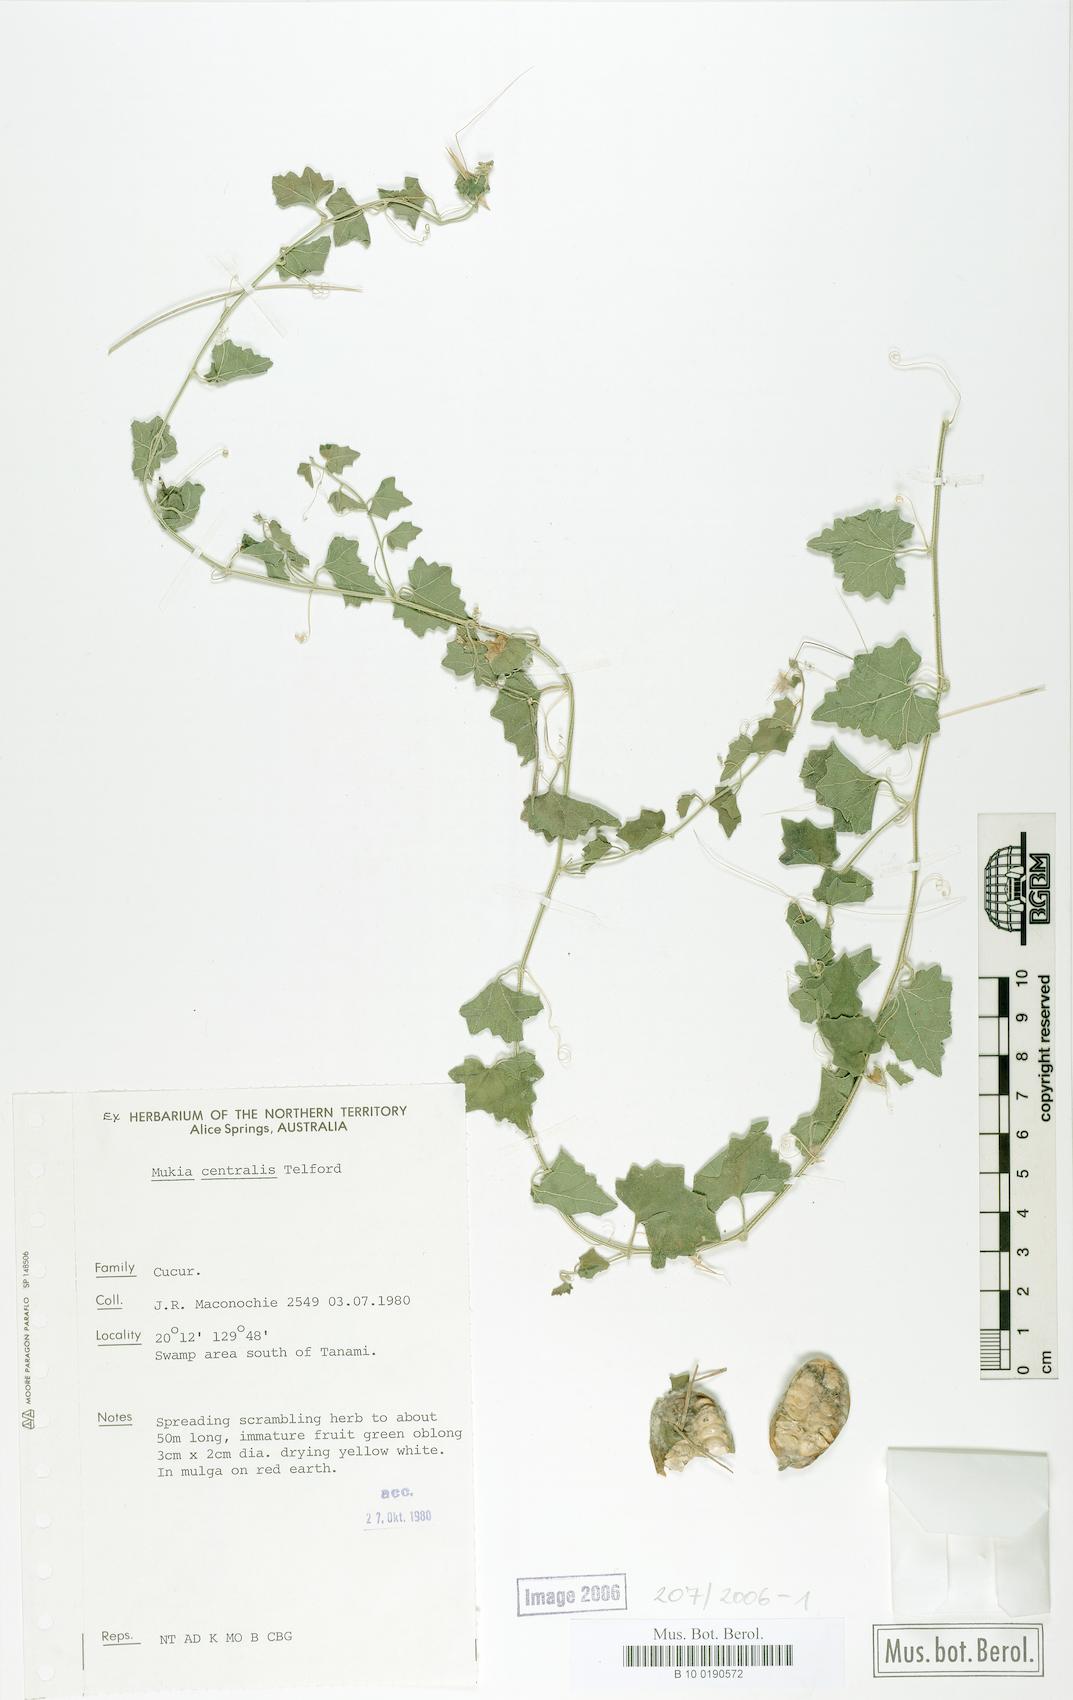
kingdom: Animalia
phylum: Arthropoda
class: Insecta
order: Lepidoptera
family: Crambidae
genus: Mukia
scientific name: Mukia
